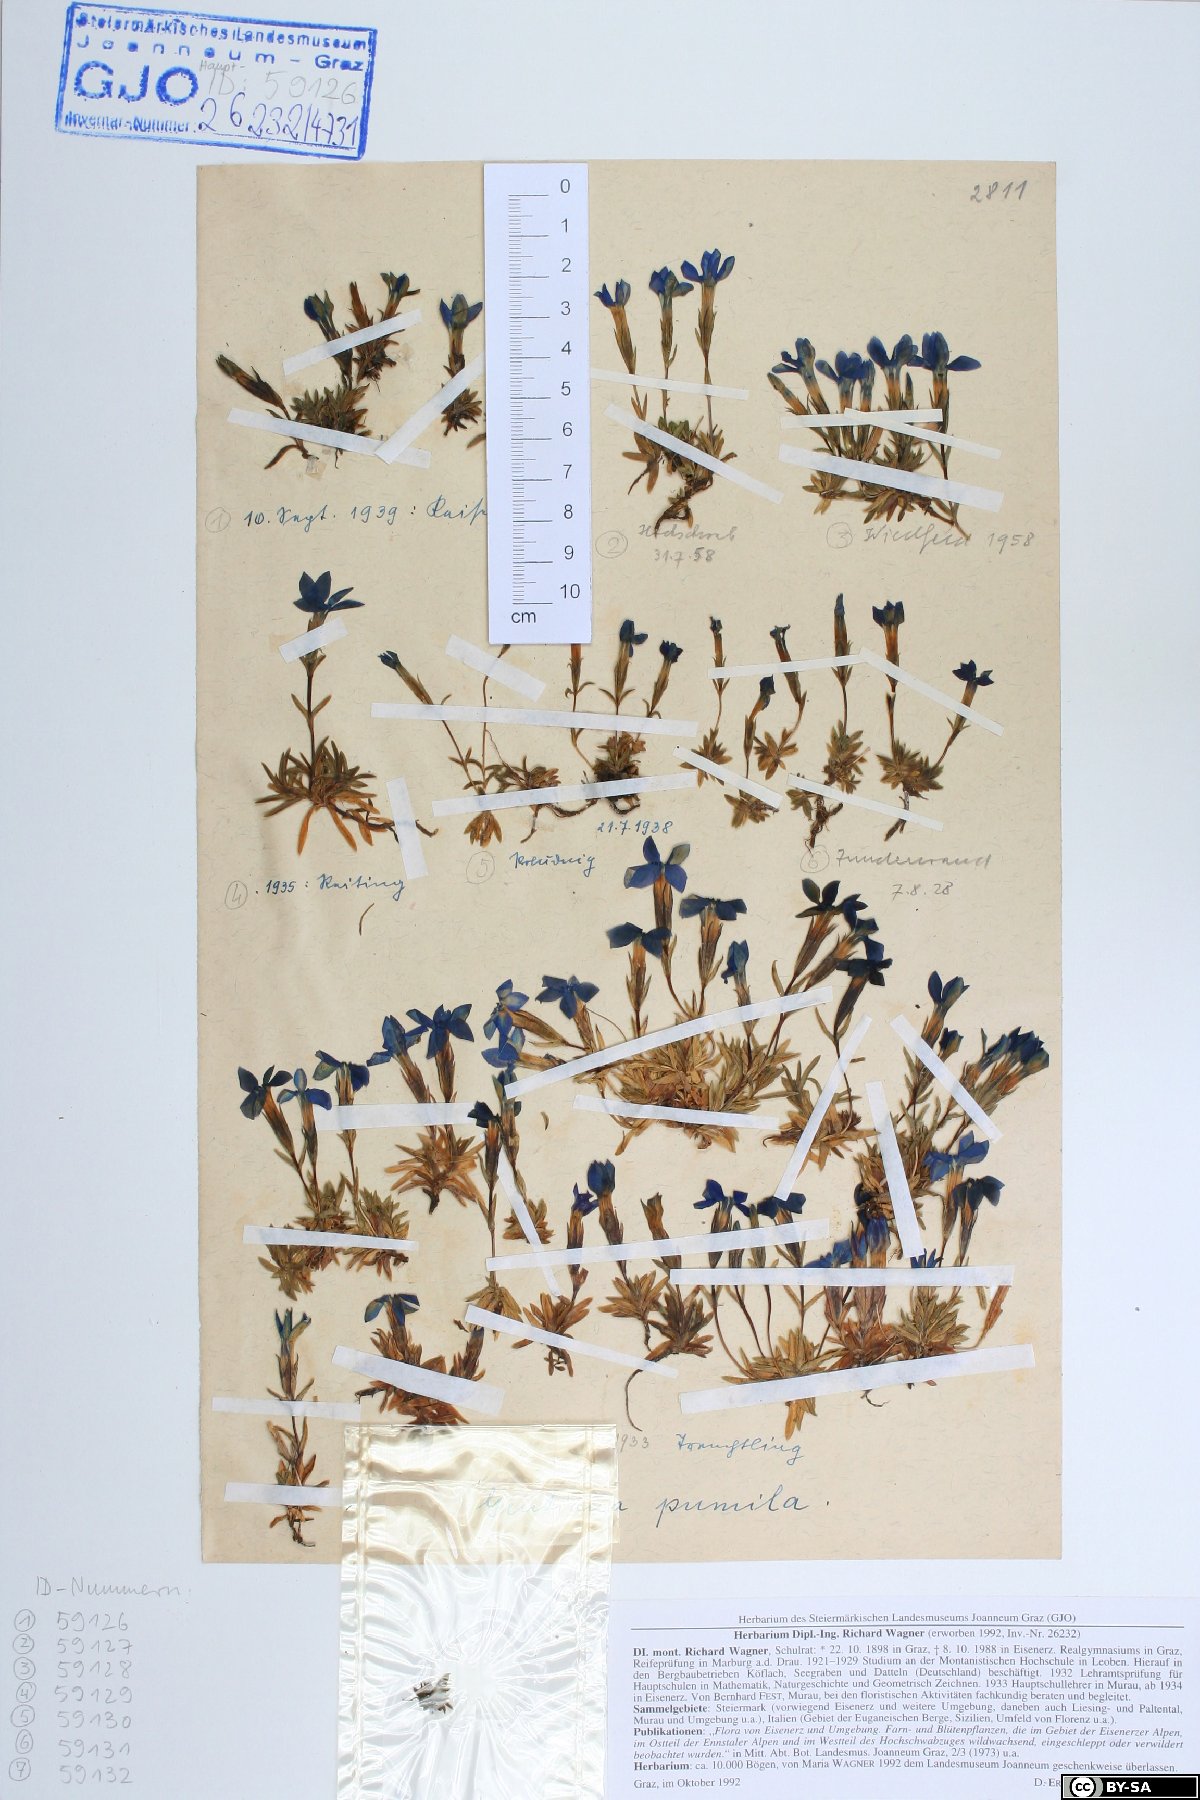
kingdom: Plantae
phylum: Tracheophyta
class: Magnoliopsida
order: Gentianales
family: Gentianaceae
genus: Gentiana
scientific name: Gentiana pumila
